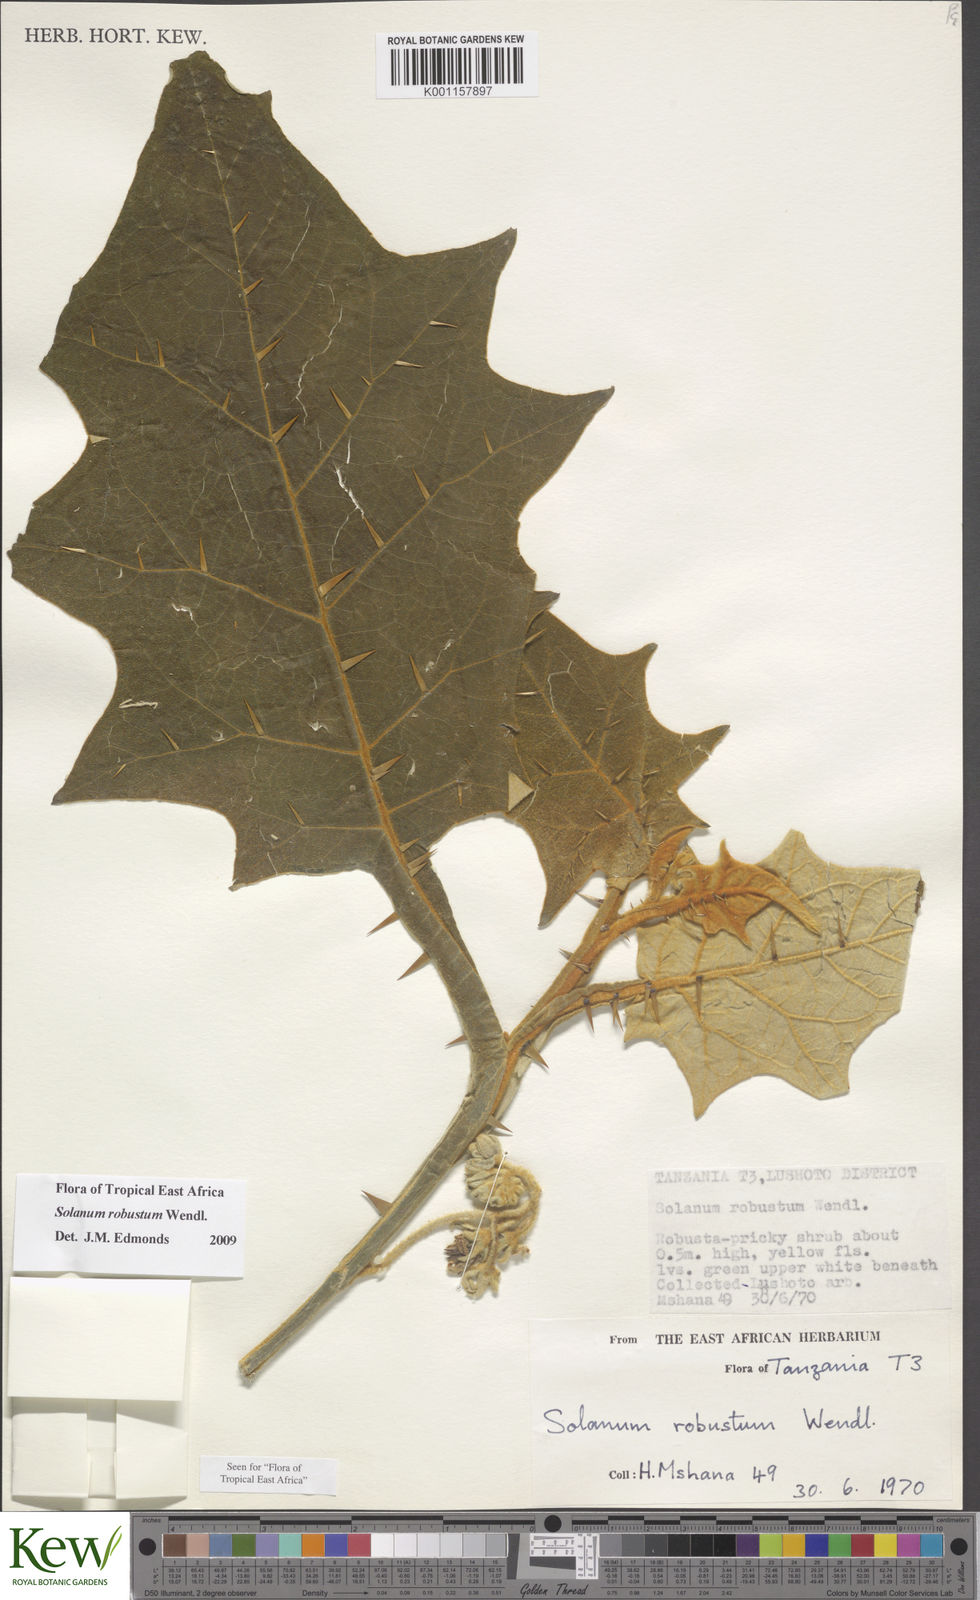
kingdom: Plantae
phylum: Tracheophyta
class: Magnoliopsida
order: Solanales
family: Solanaceae
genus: Solanum
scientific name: Solanum robustum
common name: Shrubby nightshade
